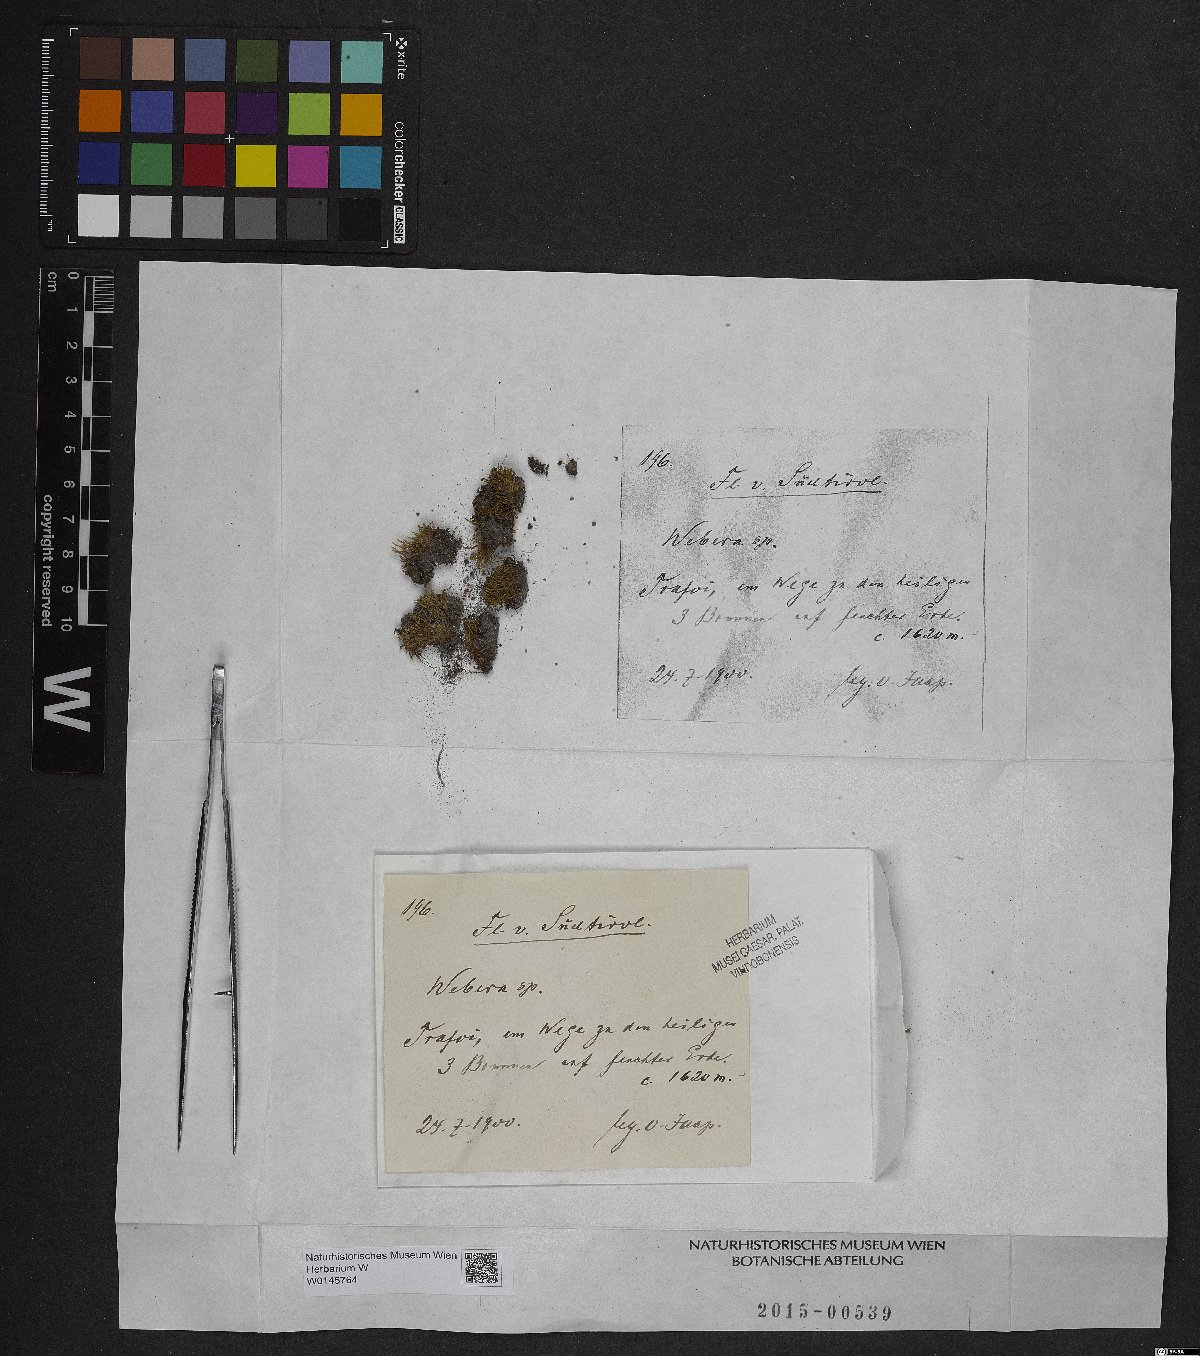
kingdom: Plantae
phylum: Tracheophyta
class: Magnoliopsida
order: Gentianales
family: Rubiaceae
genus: Webera
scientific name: Webera
